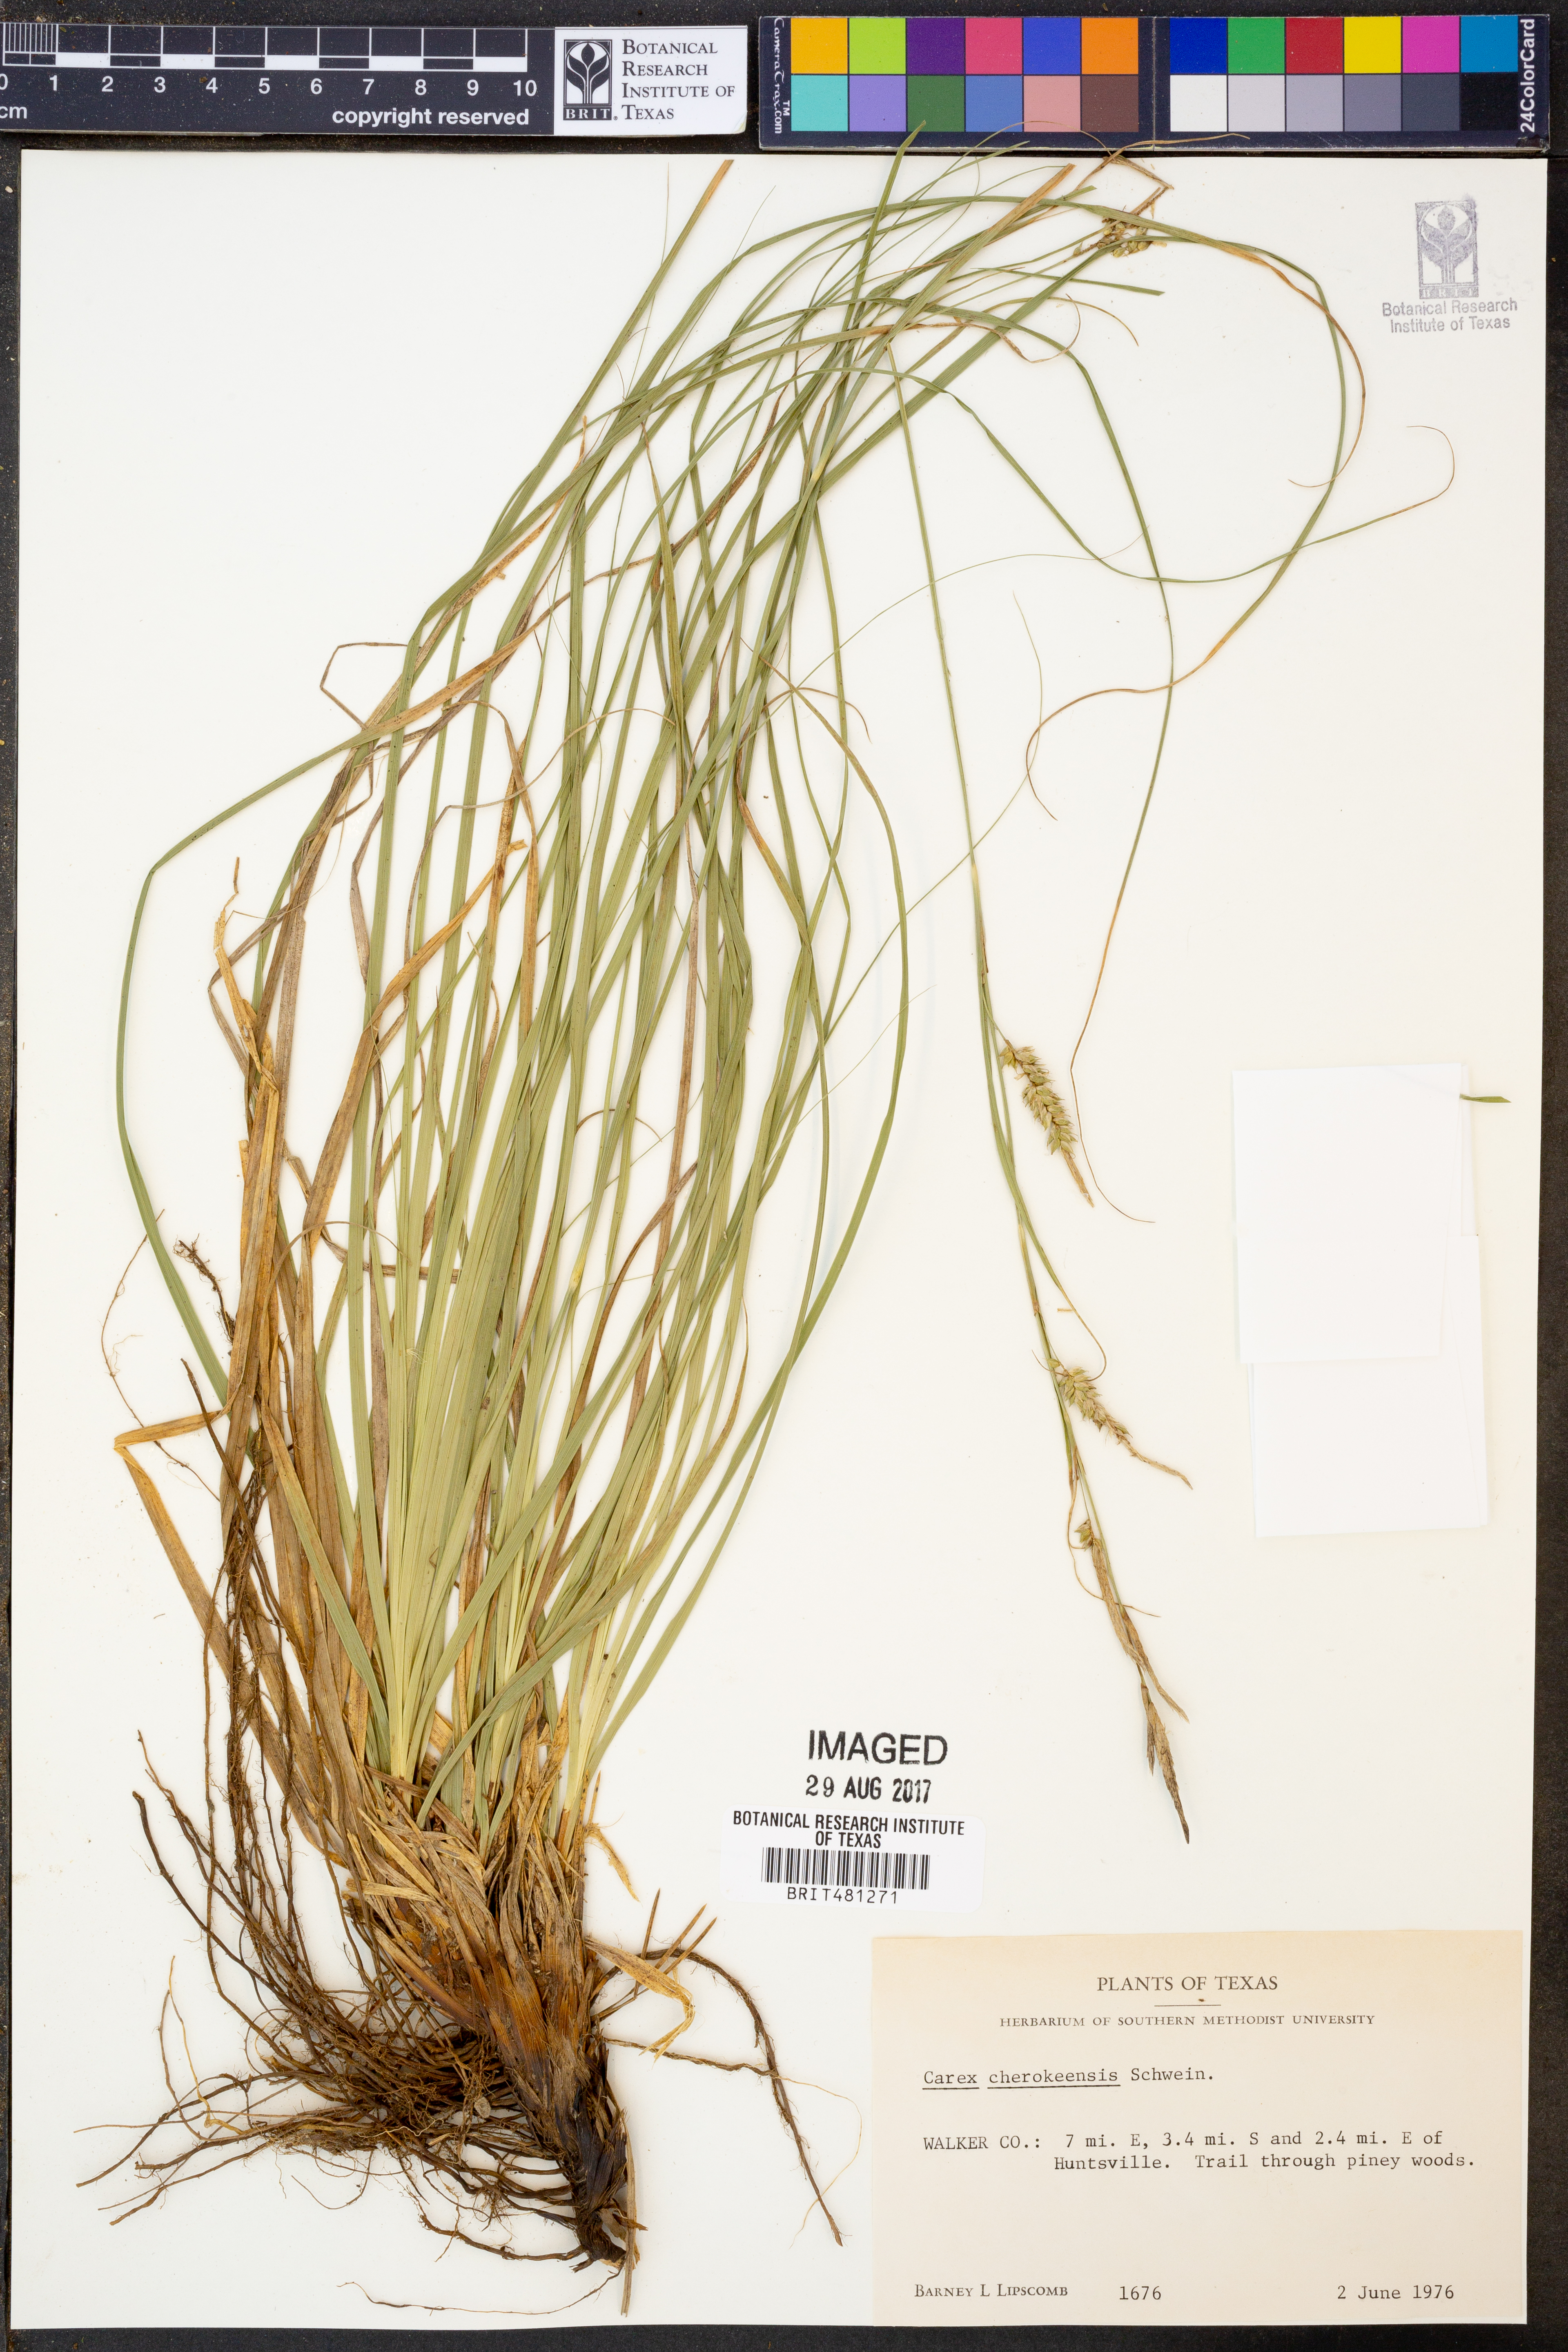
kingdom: Plantae
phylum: Tracheophyta
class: Liliopsida
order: Poales
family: Cyperaceae
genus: Carex
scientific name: Carex cherokeensis
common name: Cherokee sedge
